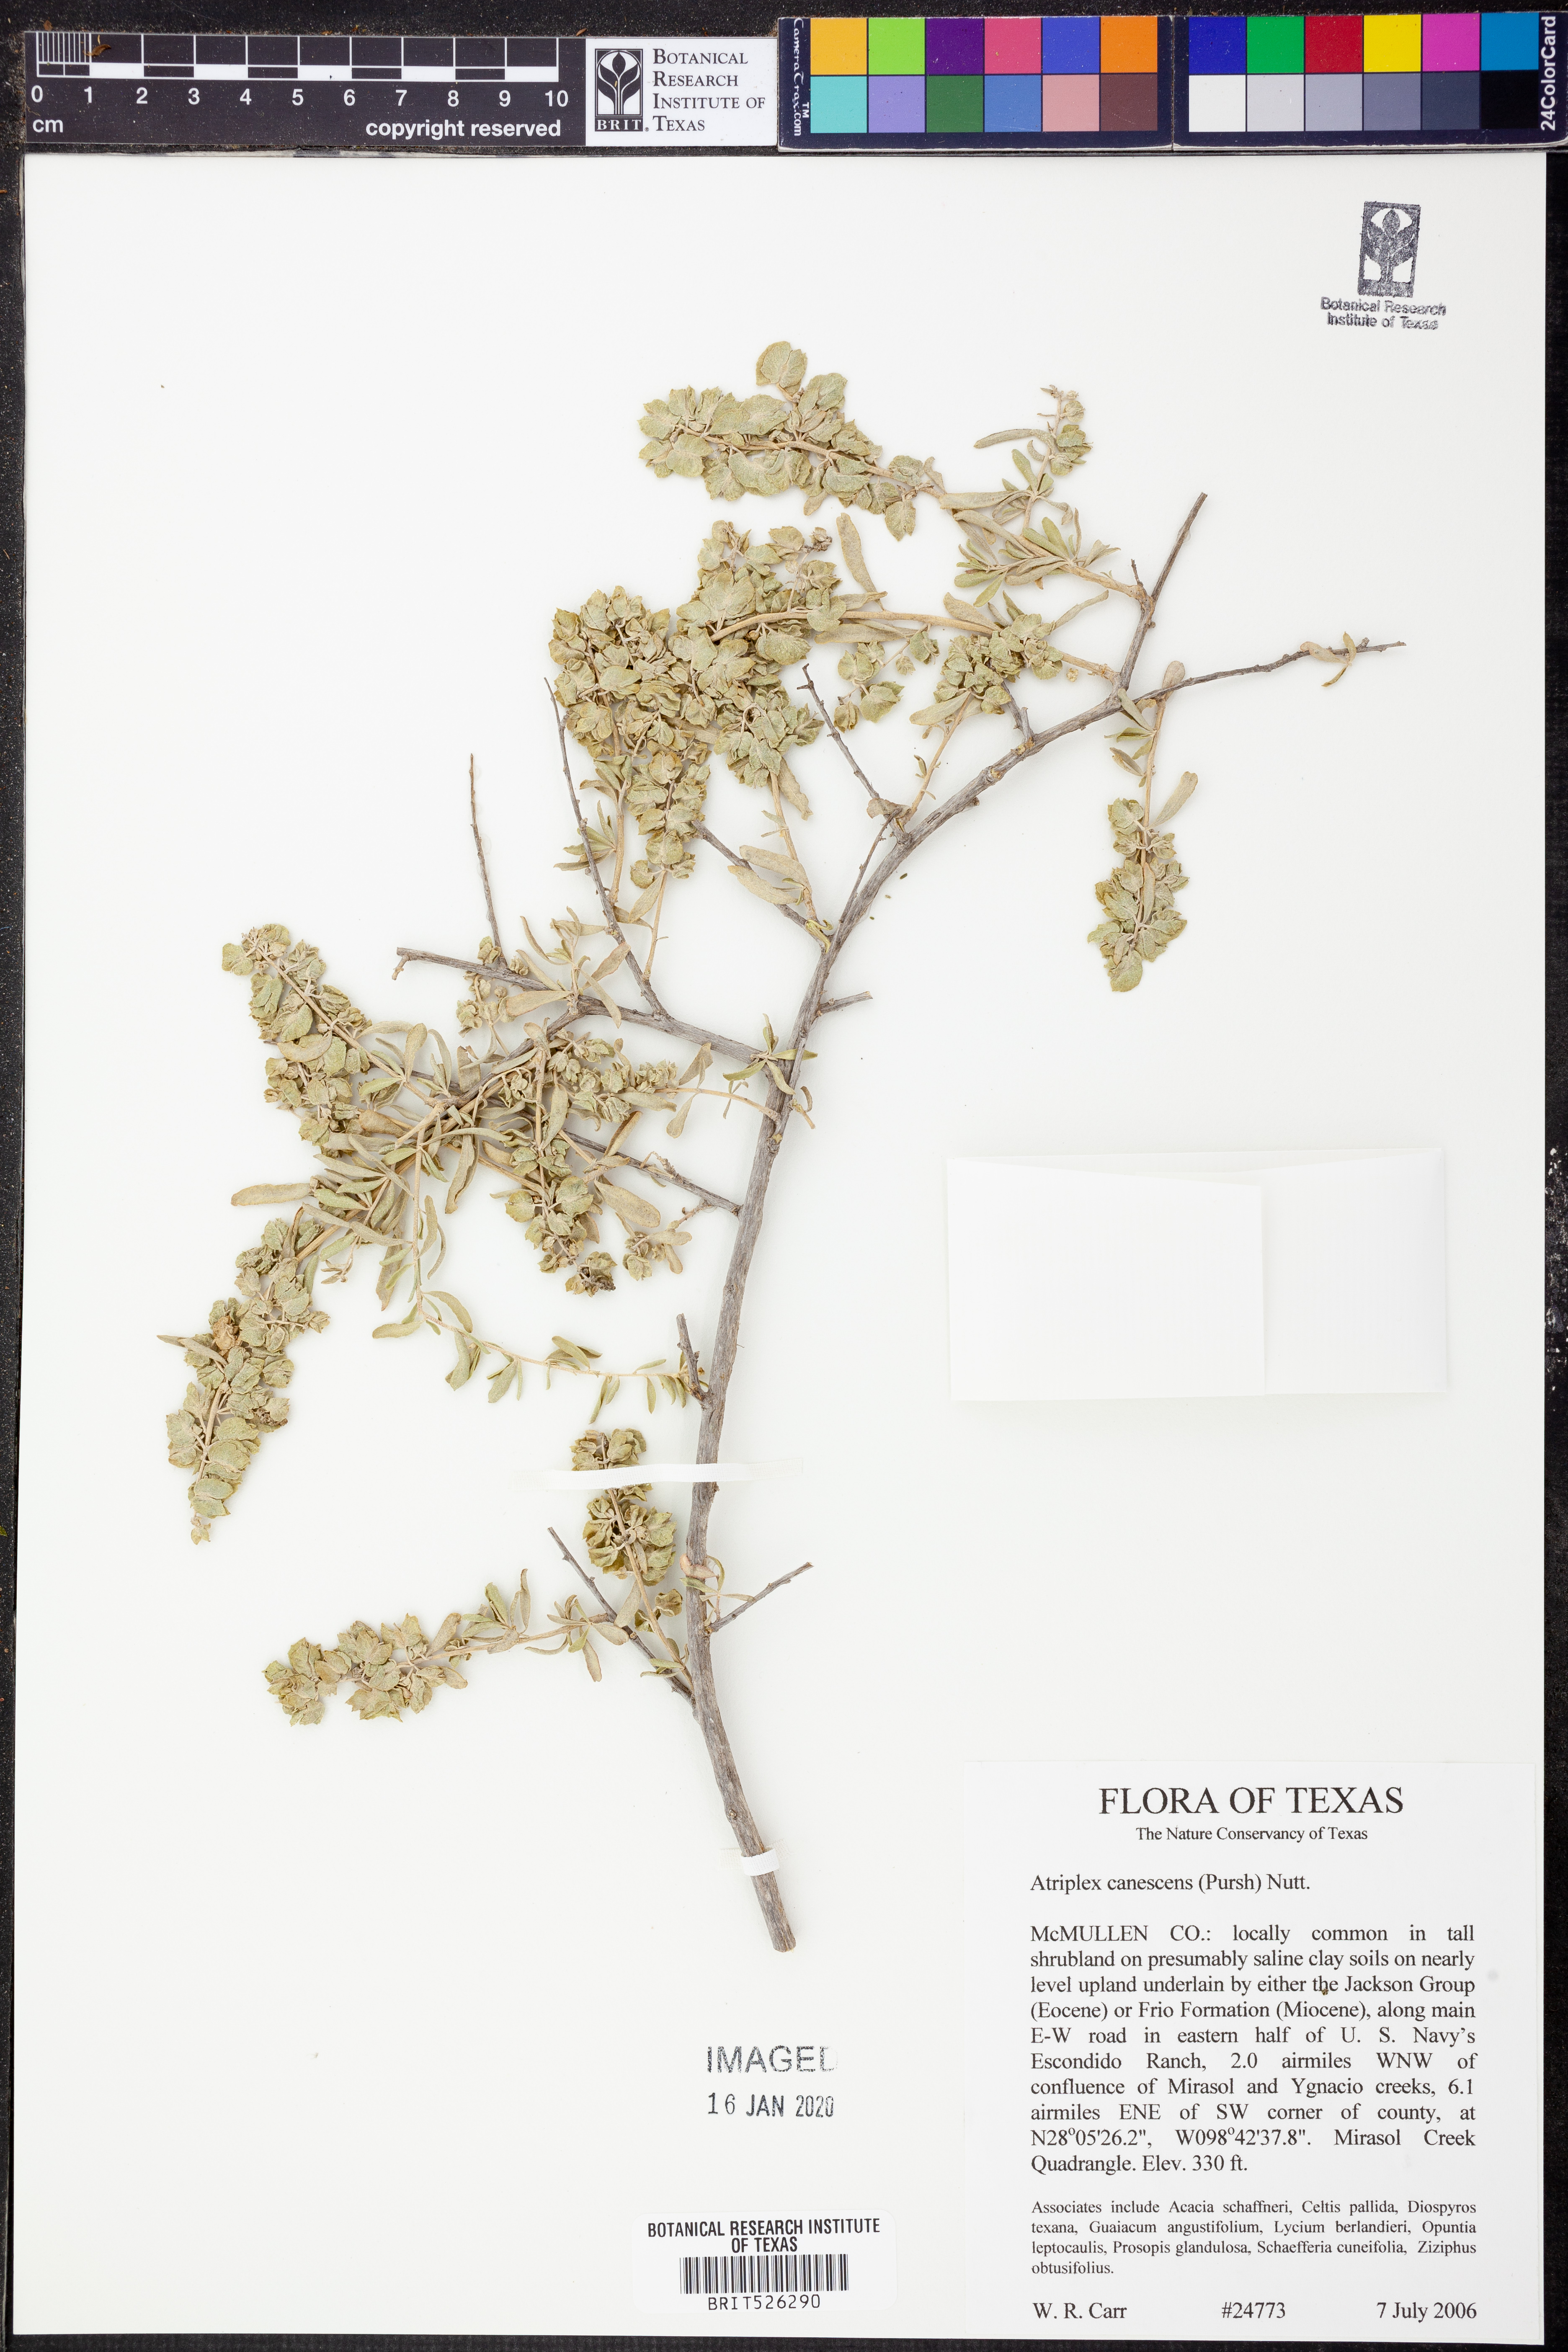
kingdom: Plantae
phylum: Tracheophyta
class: Magnoliopsida
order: Caryophyllales
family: Amaranthaceae
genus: Atriplex
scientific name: Atriplex canescens
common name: Four-wing saltbush
